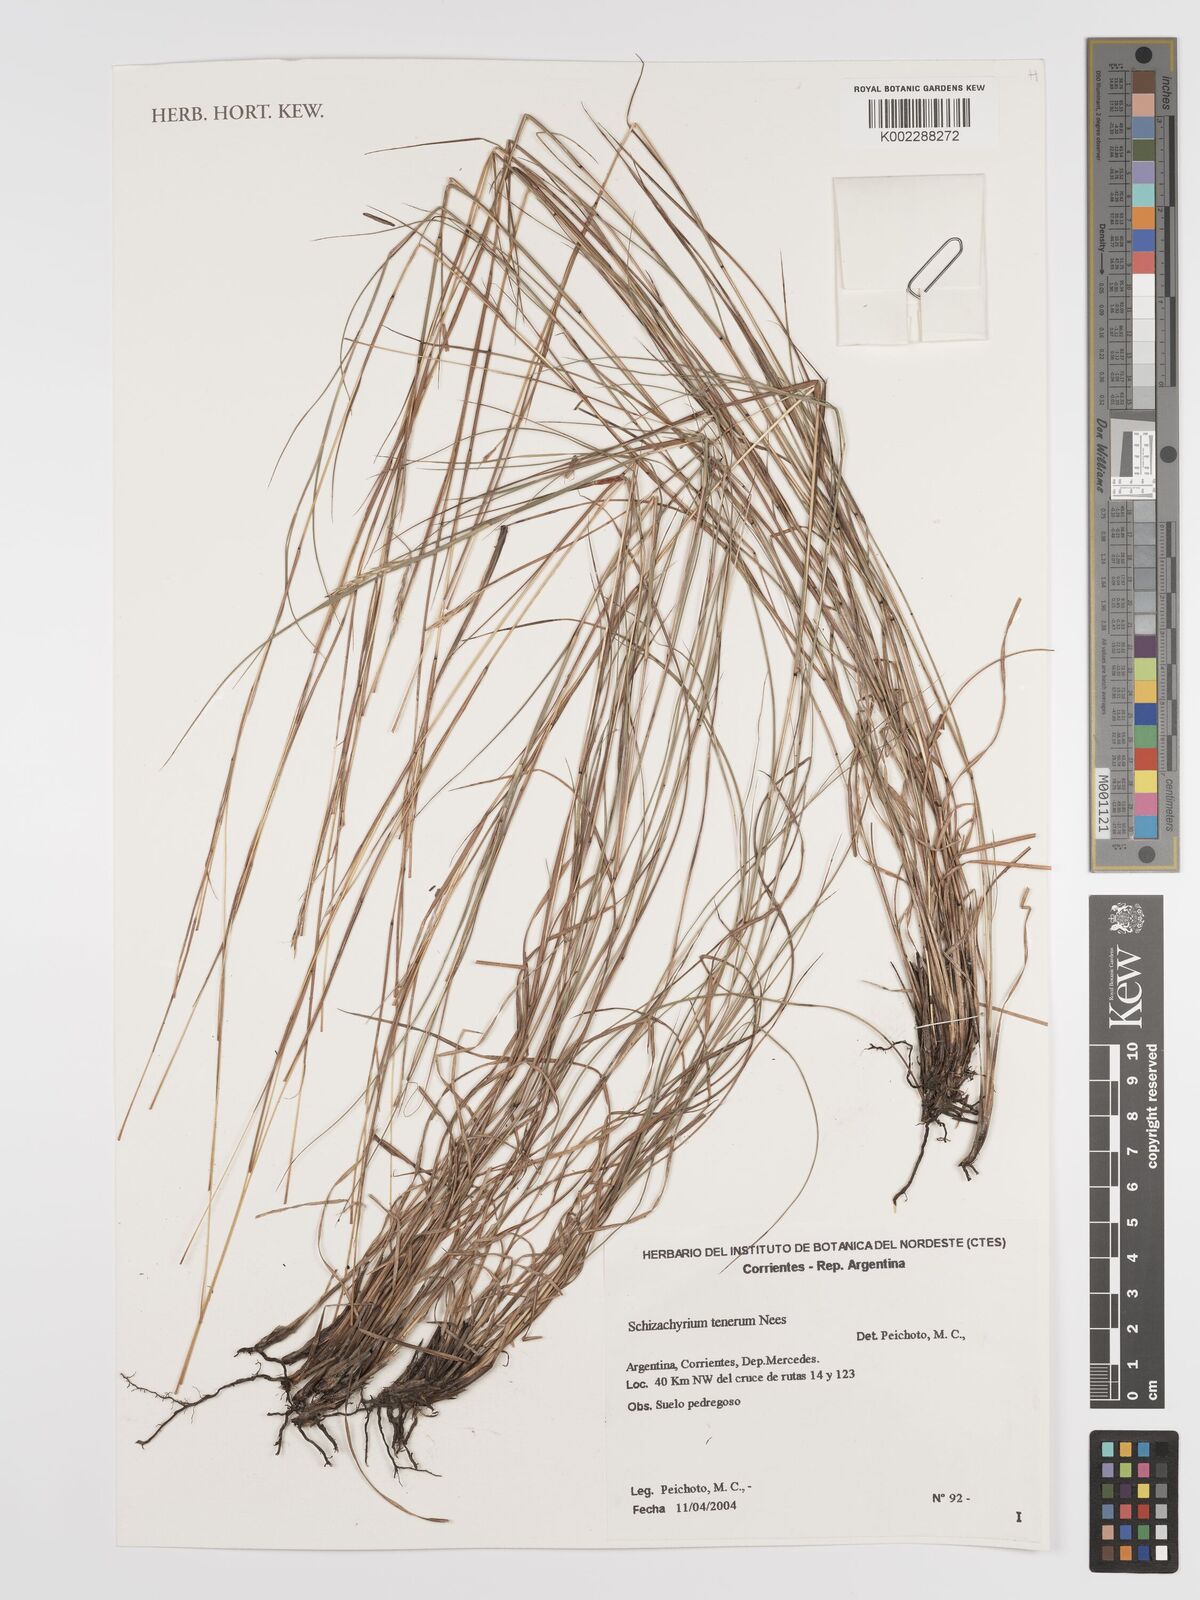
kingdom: Plantae
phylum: Tracheophyta
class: Liliopsida
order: Poales
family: Poaceae
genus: Andropogon
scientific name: Andropogon tener
